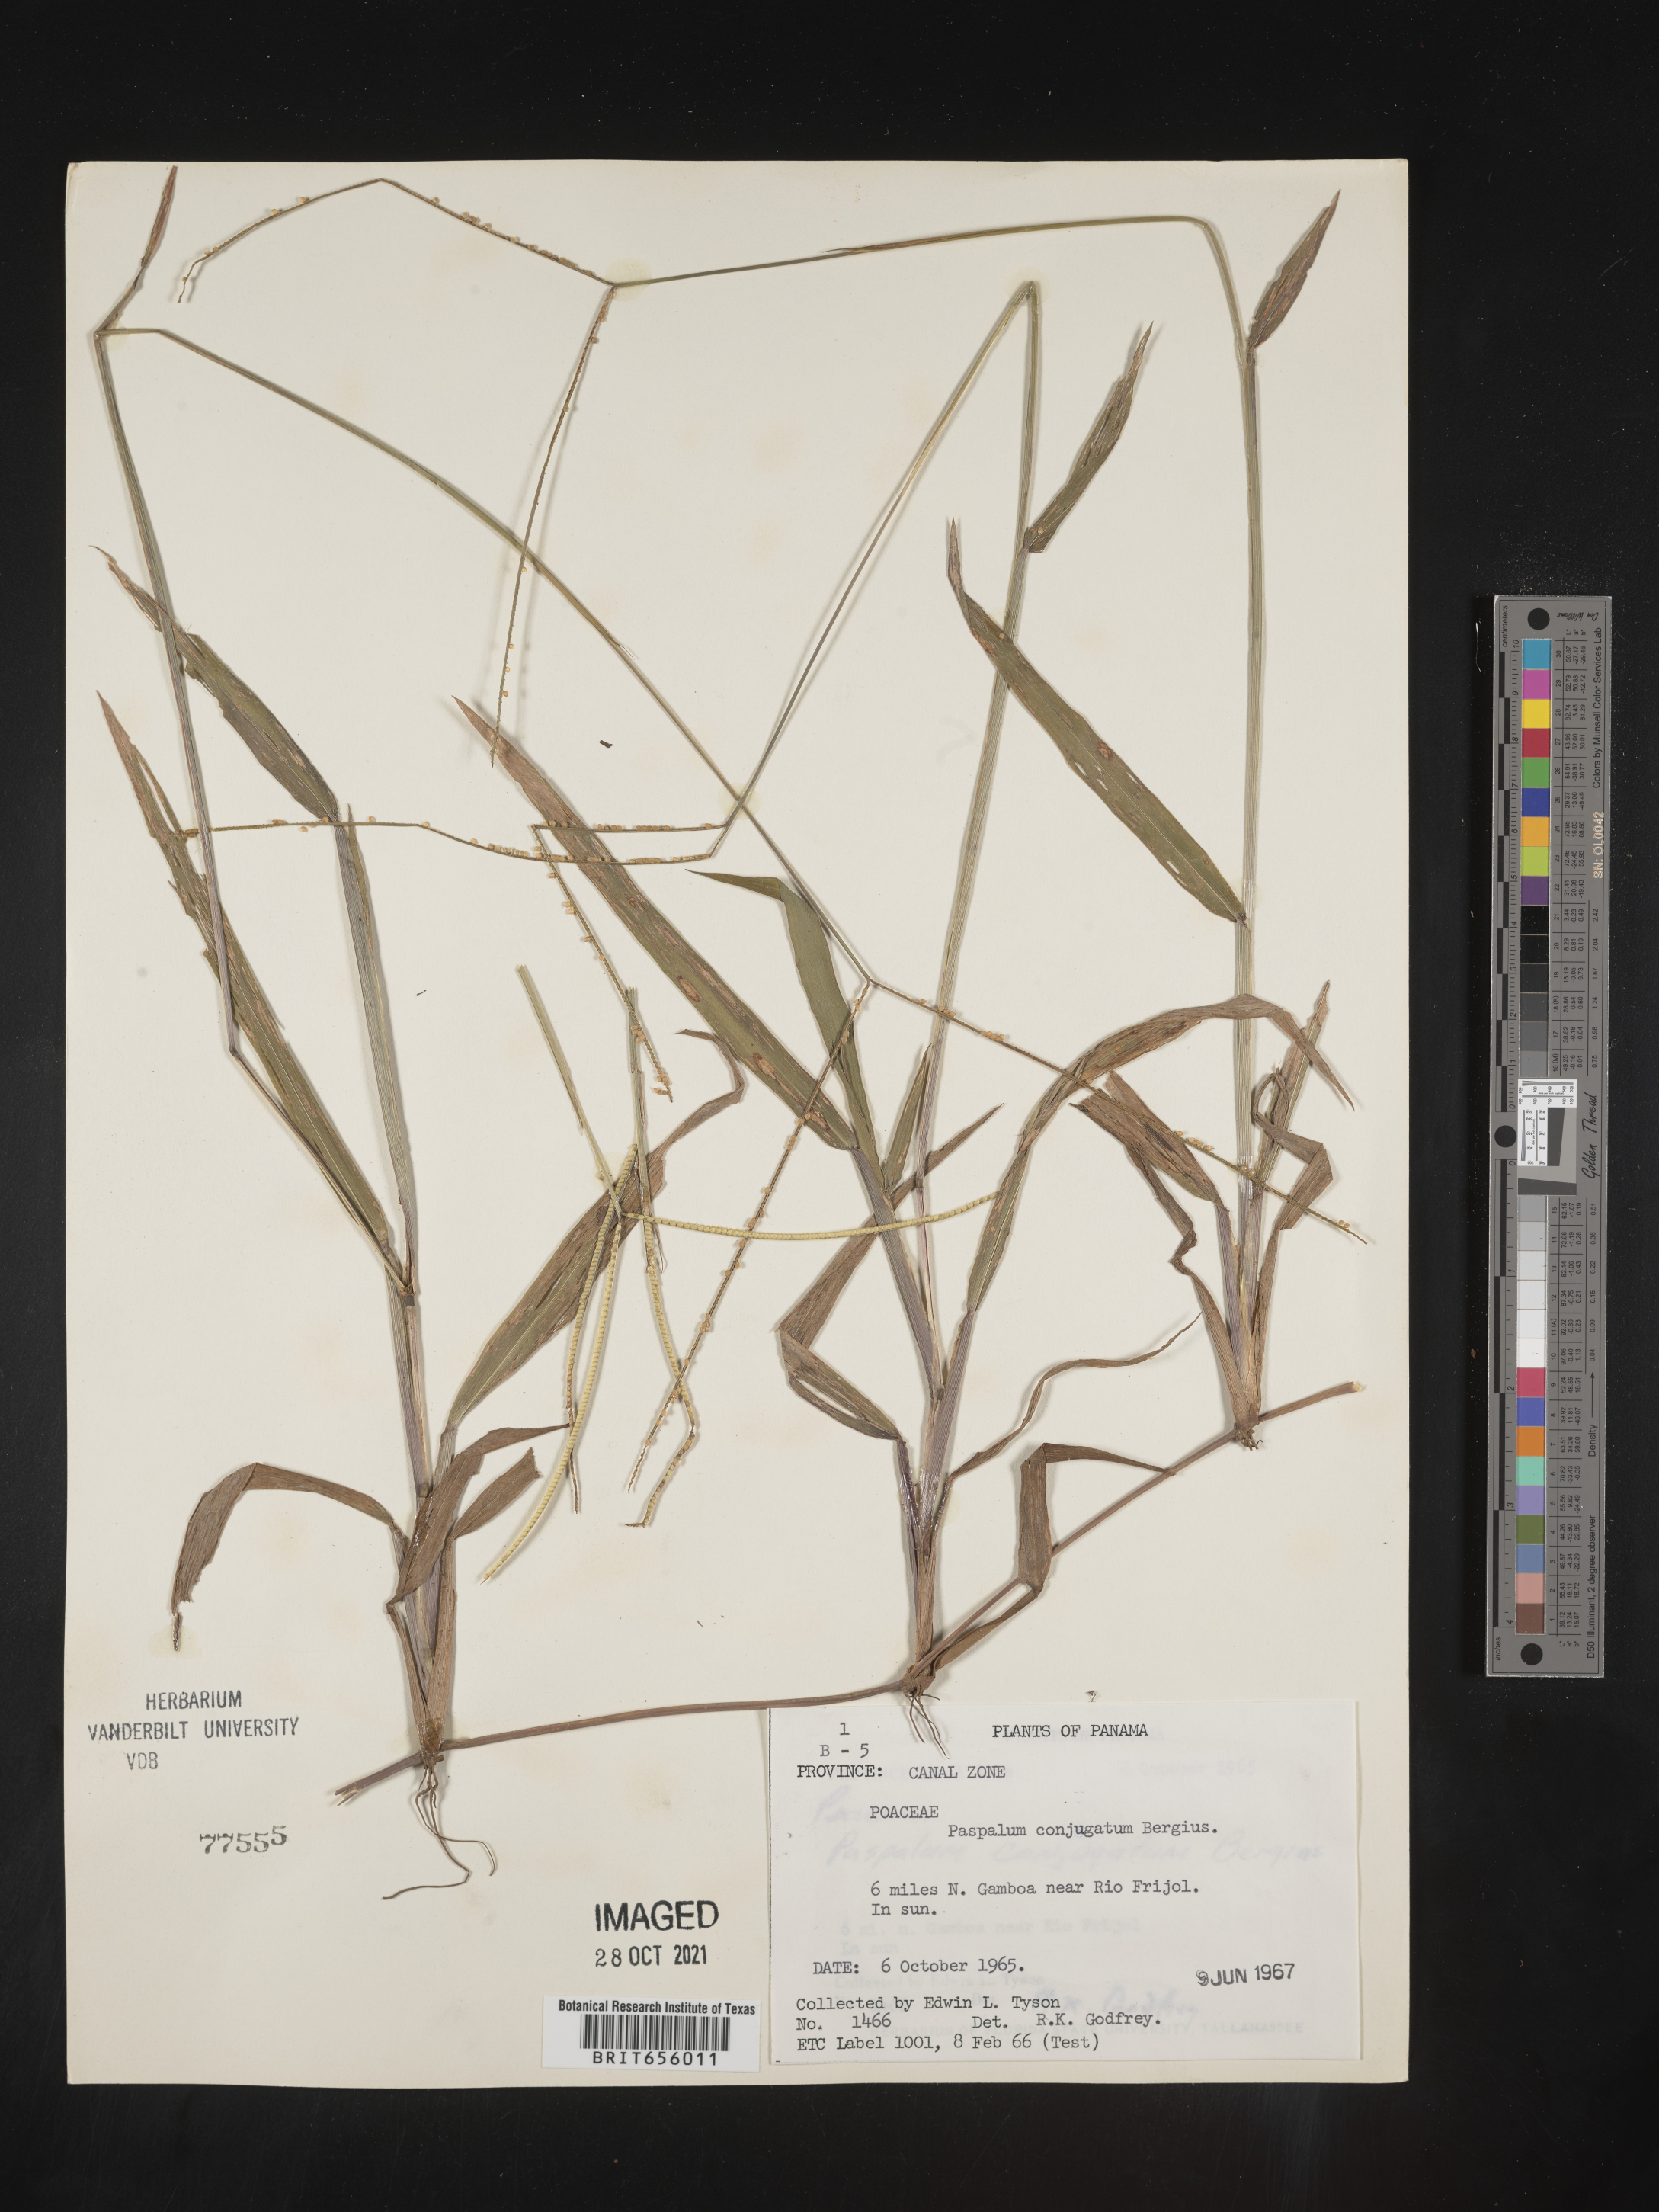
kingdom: Plantae
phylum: Tracheophyta
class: Liliopsida
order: Poales
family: Poaceae
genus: Paspalum
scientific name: Paspalum
